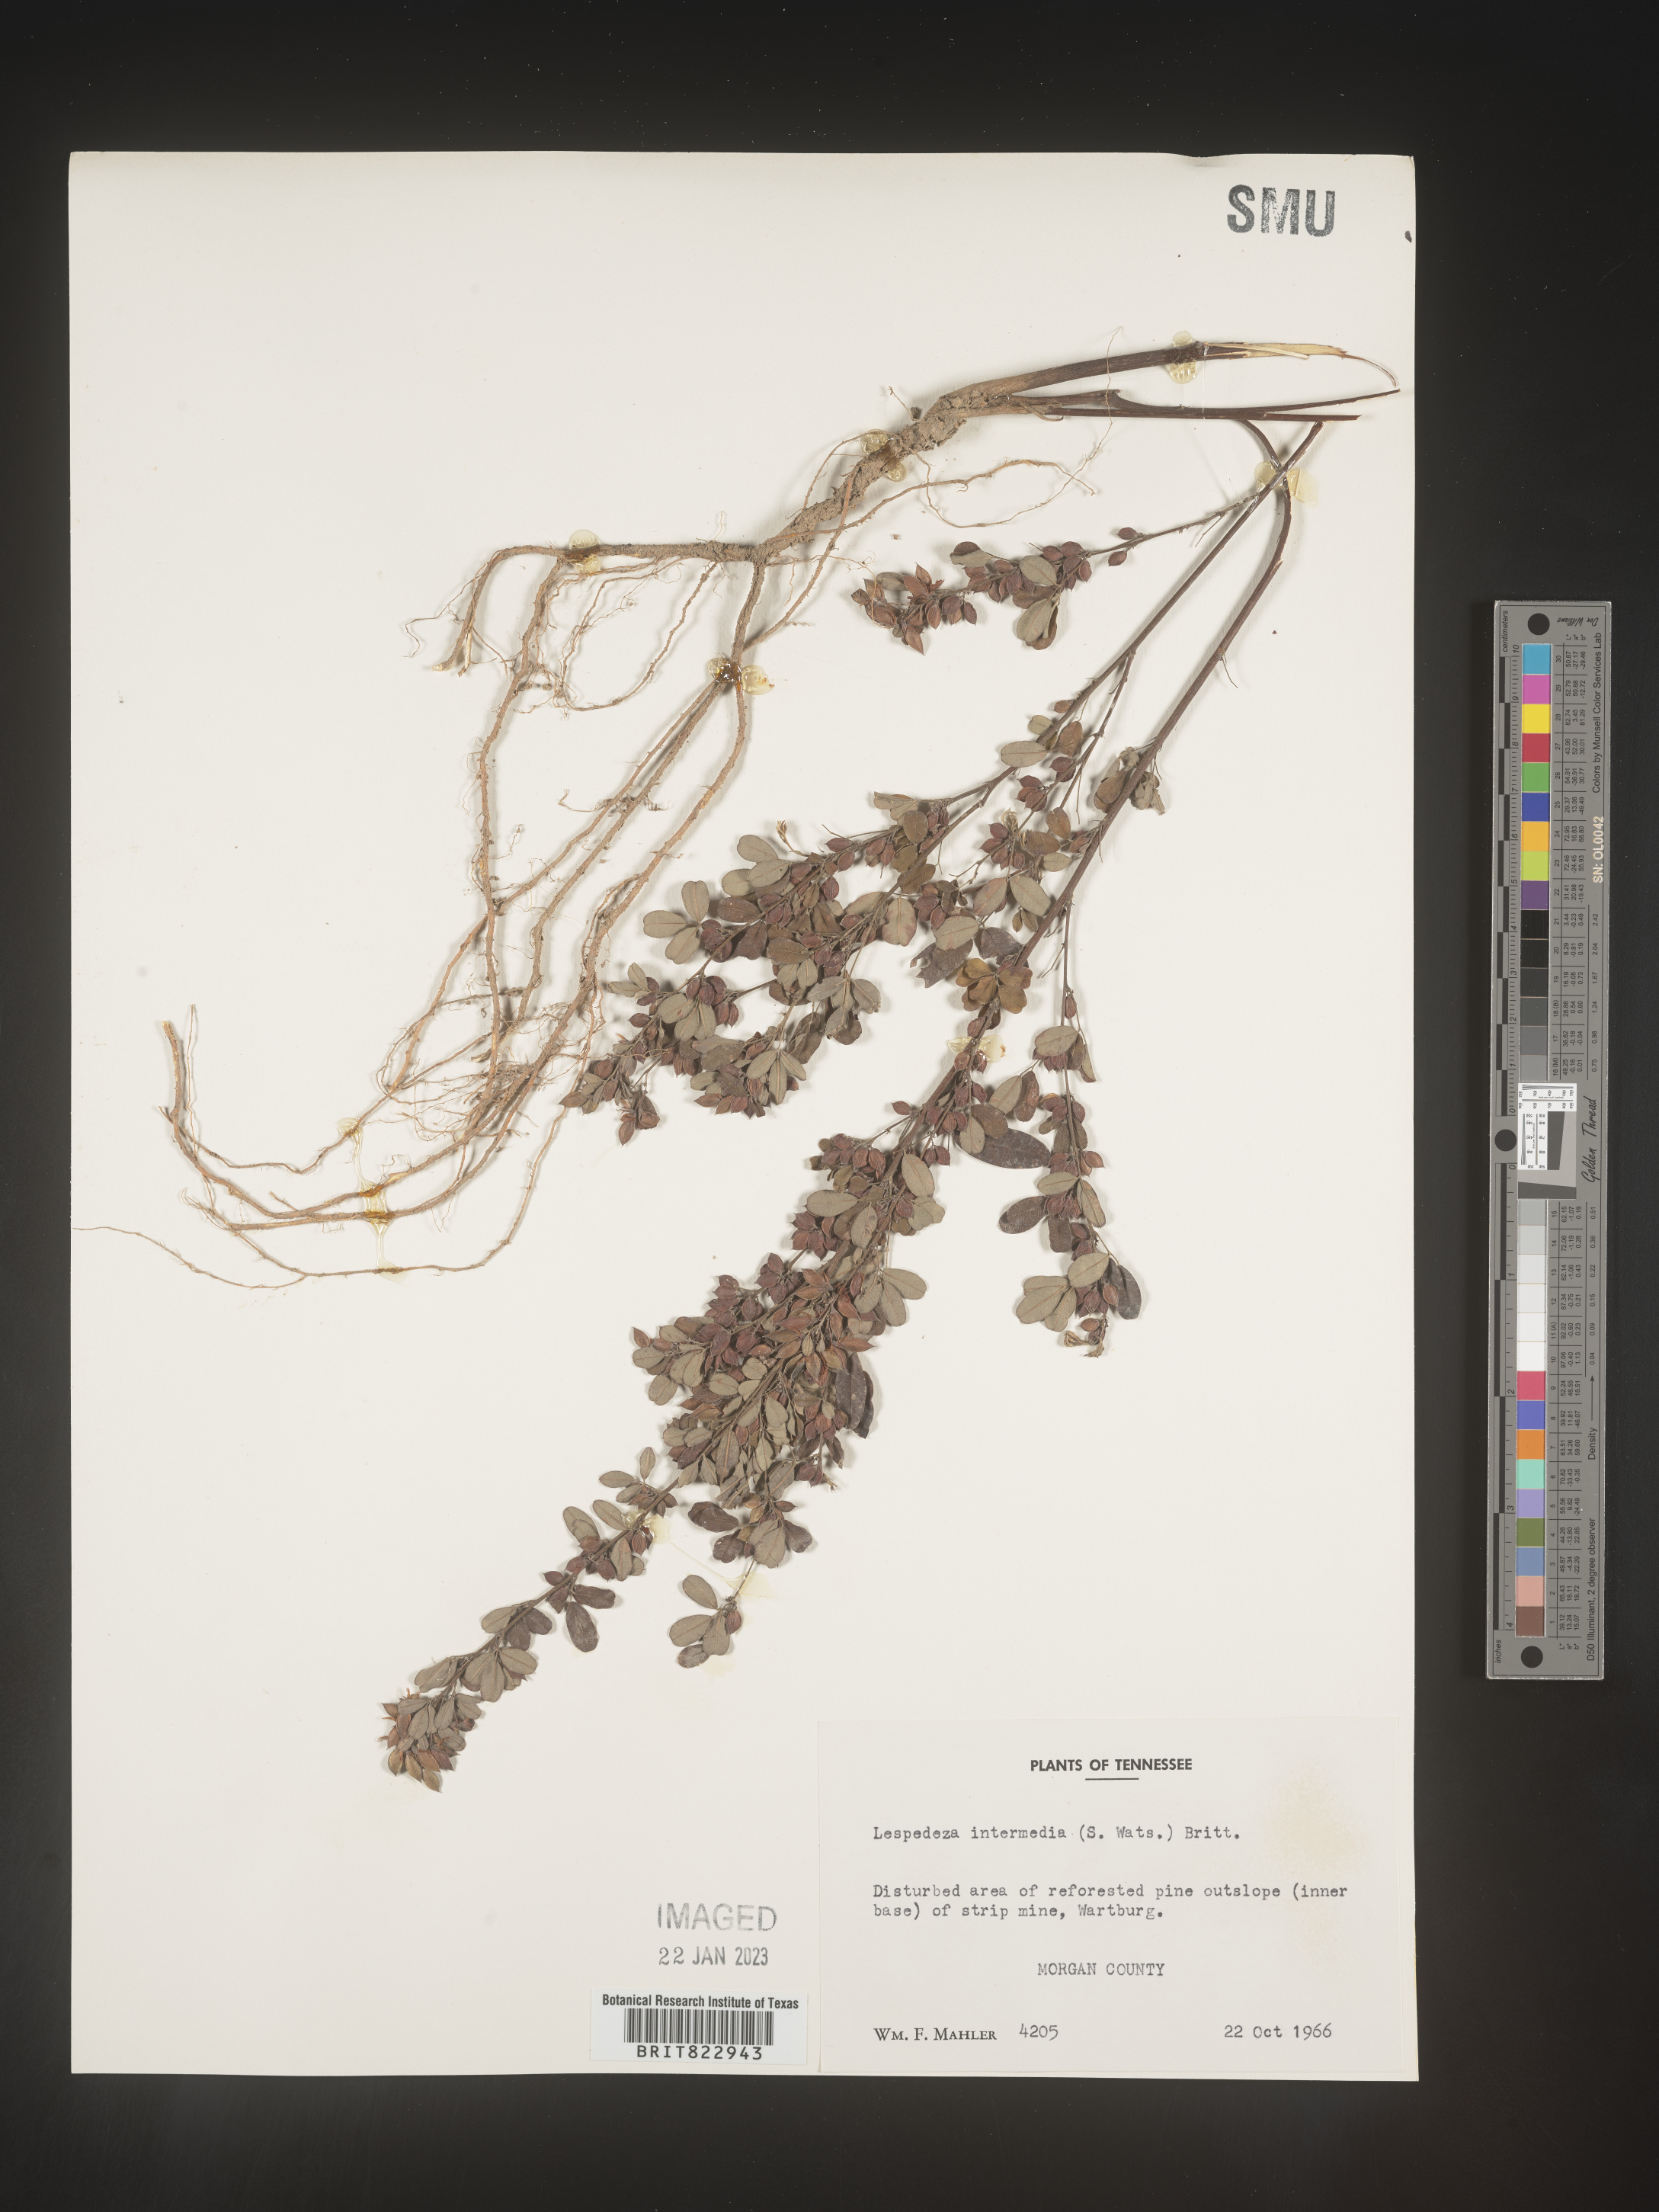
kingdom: Plantae
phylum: Tracheophyta
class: Magnoliopsida
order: Fabales
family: Fabaceae
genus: Lespedeza
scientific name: Lespedeza
